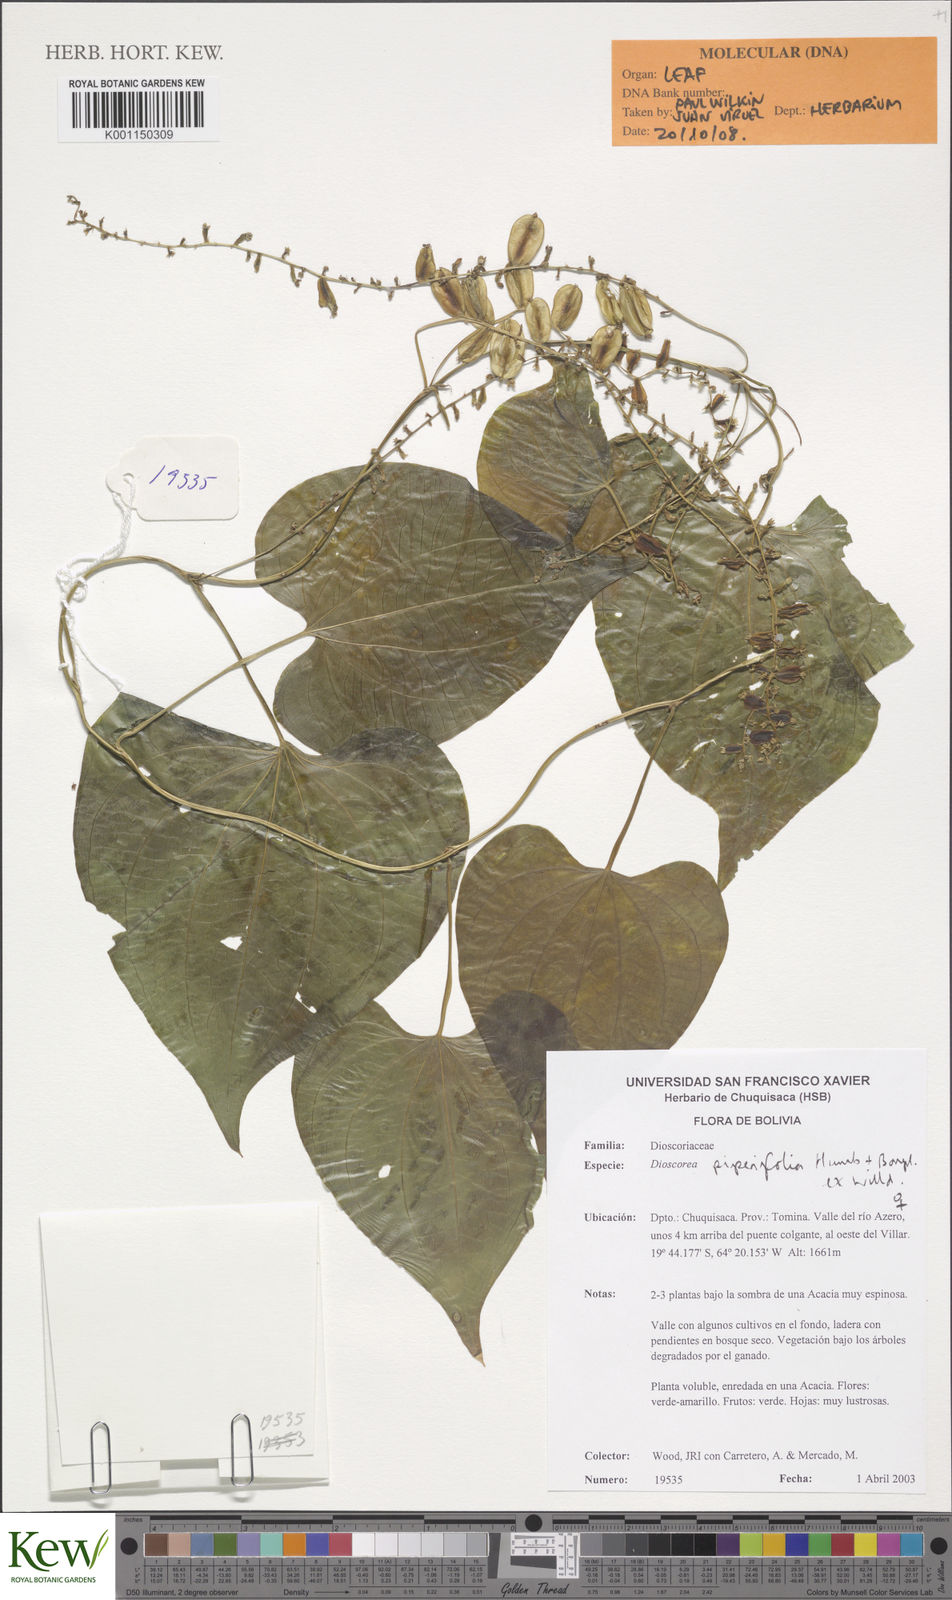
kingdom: Plantae
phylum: Tracheophyta
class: Liliopsida
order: Dioscoreales
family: Dioscoreaceae
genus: Dioscorea
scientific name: Dioscorea piperifolia
